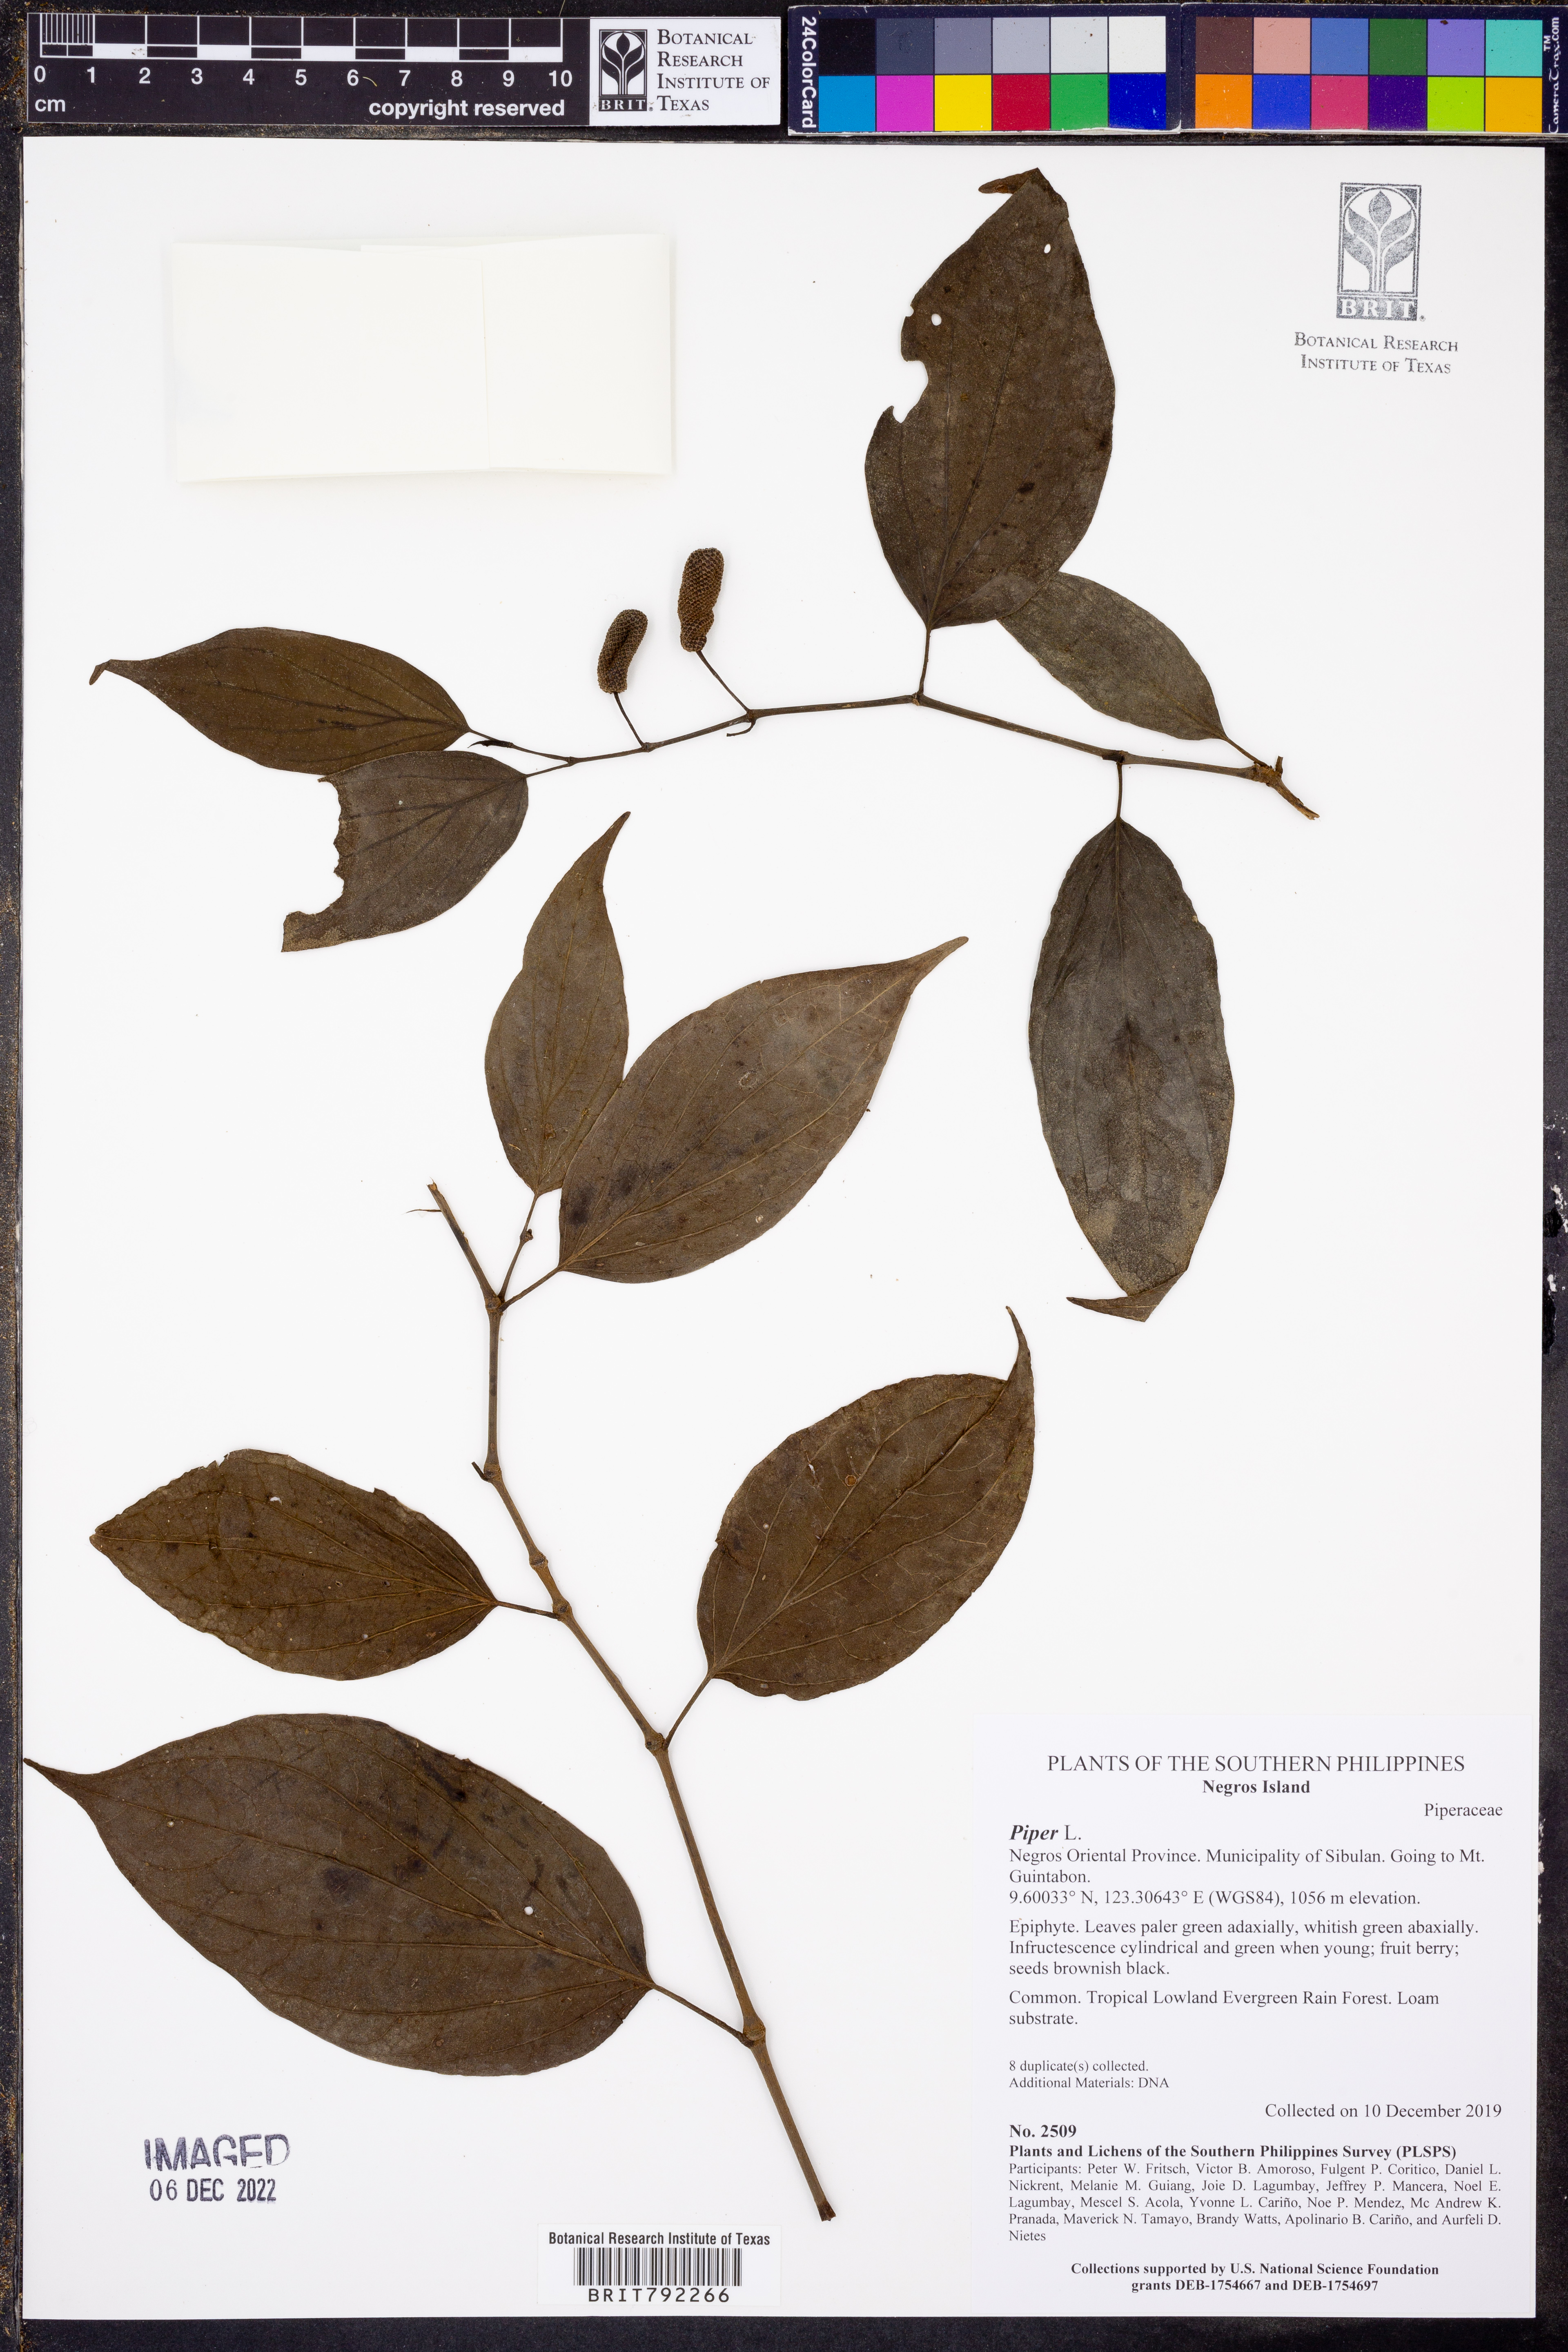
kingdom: Plantae
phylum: Tracheophyta
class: Magnoliopsida
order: Piperales
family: Piperaceae
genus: Piper
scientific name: Piper
